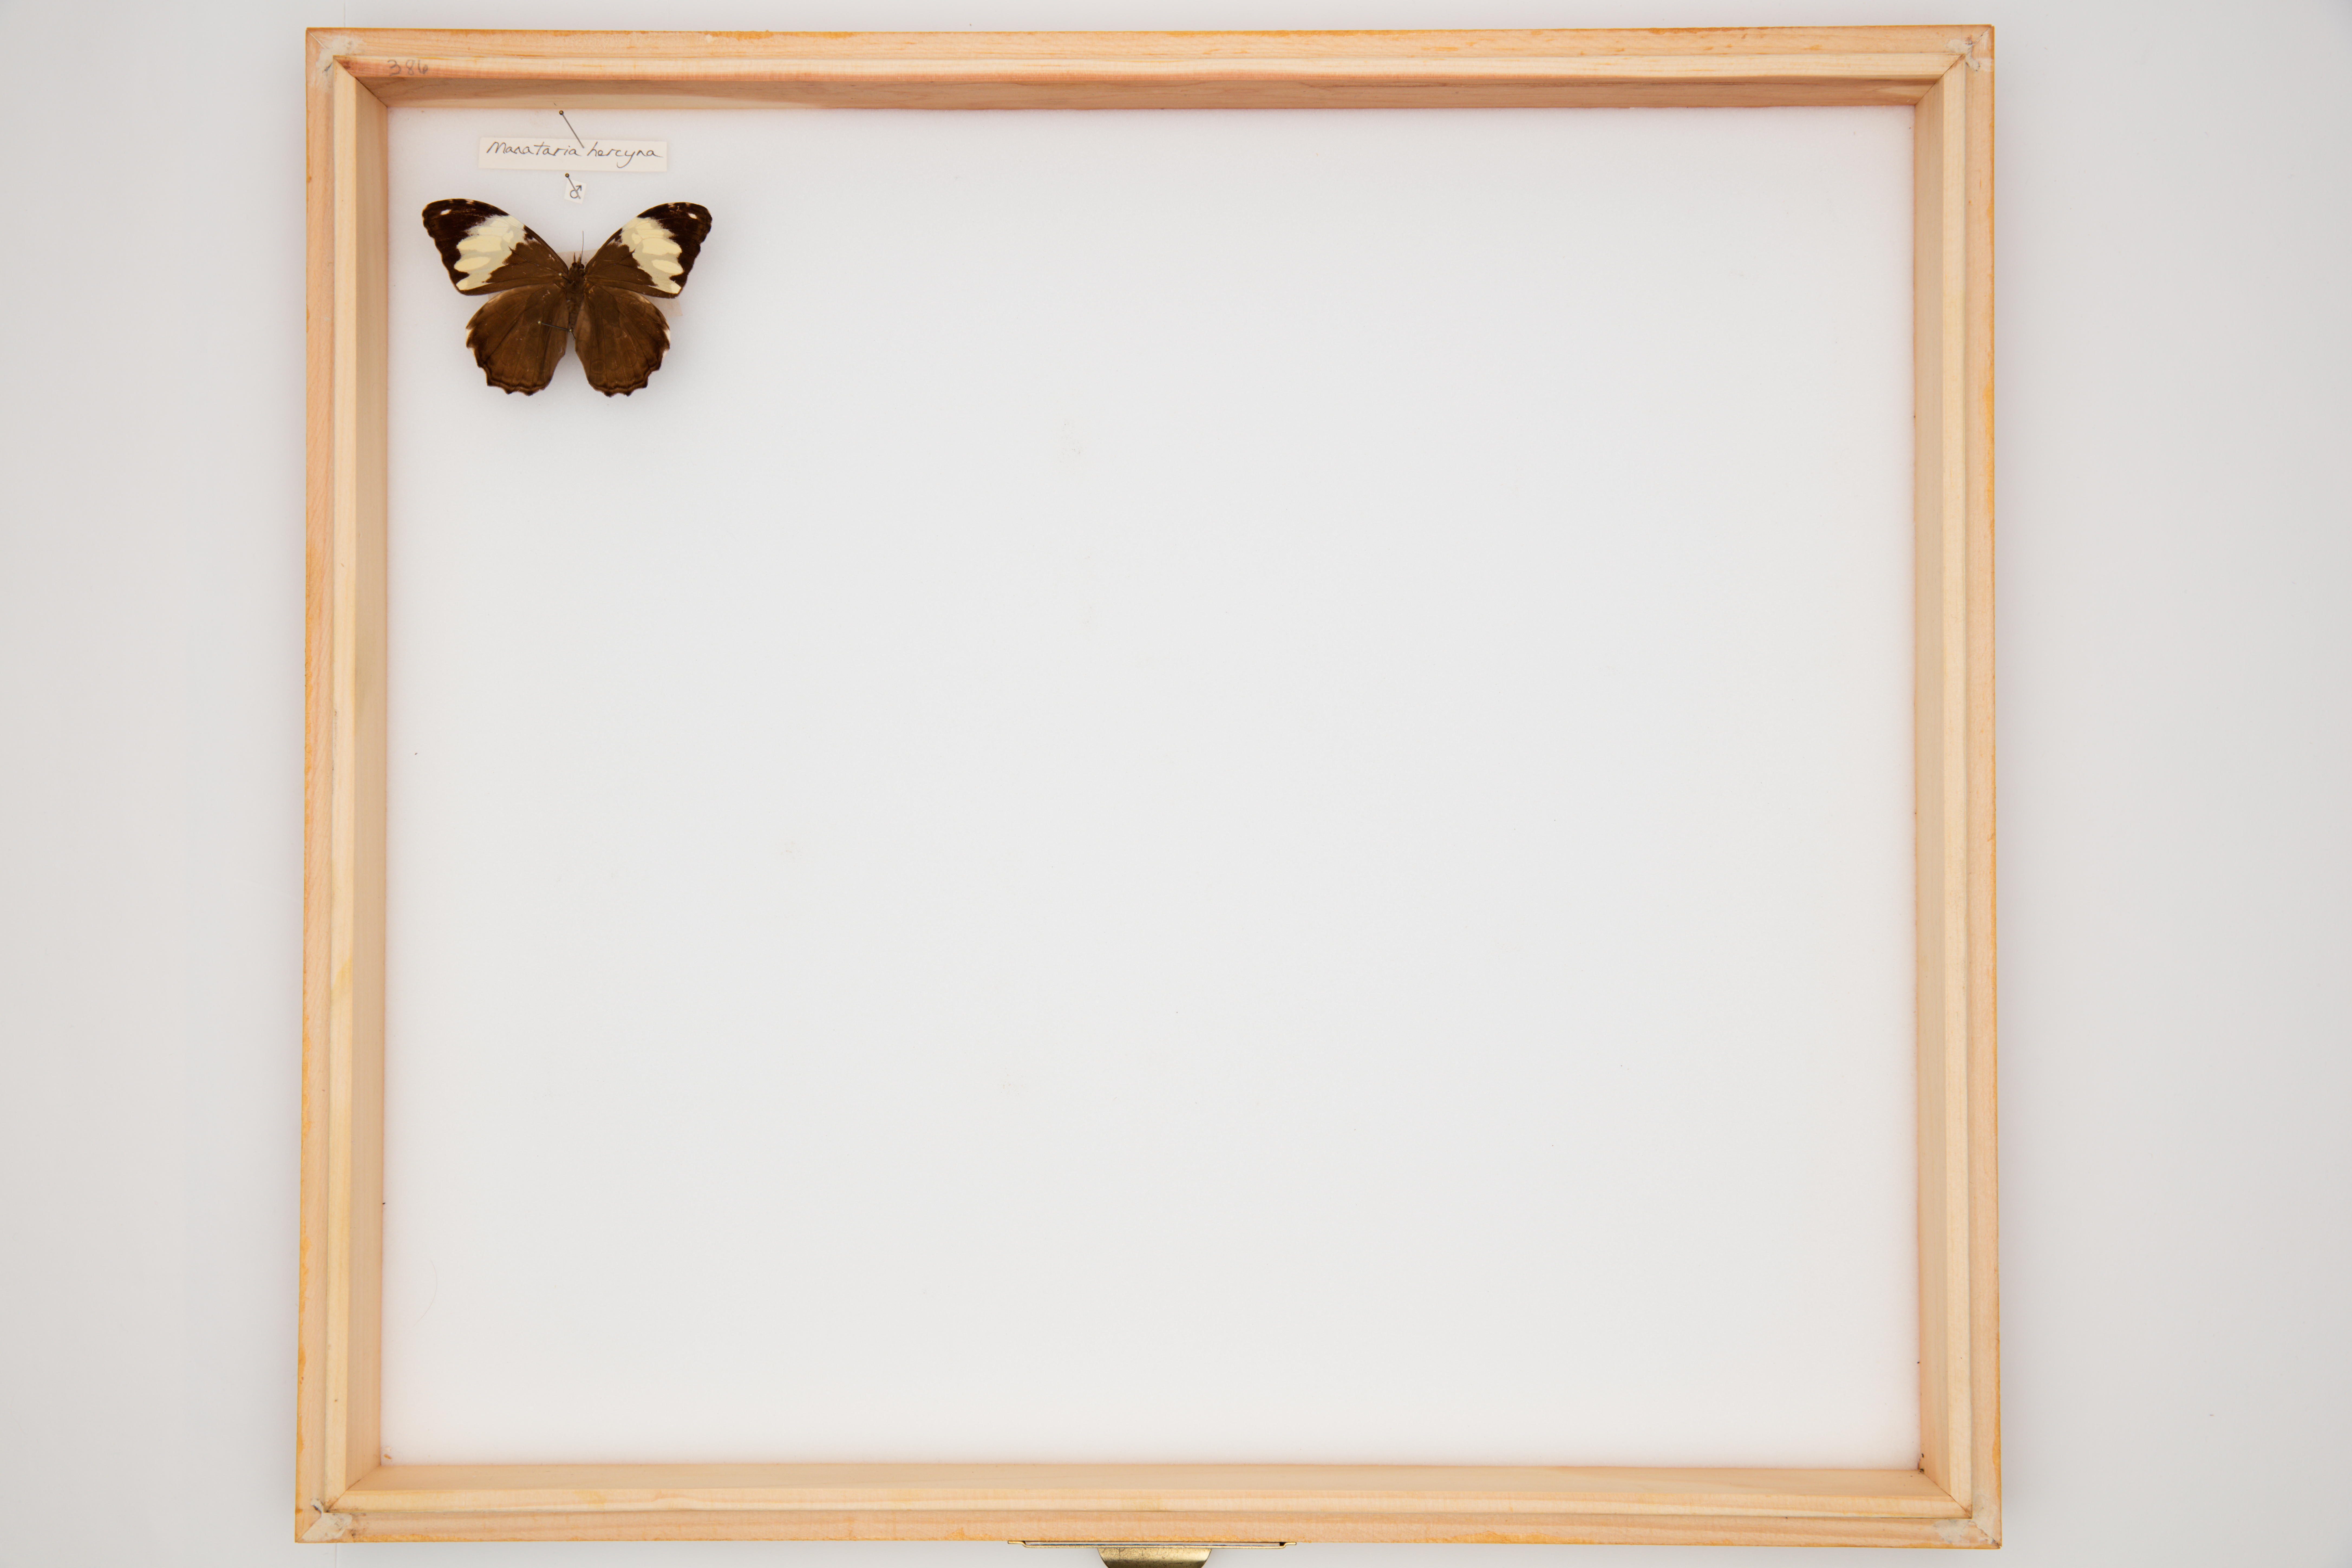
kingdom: Animalia
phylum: Arthropoda
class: Insecta
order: Lepidoptera
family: Nymphalidae
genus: Manataria
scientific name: Manataria hercyna
